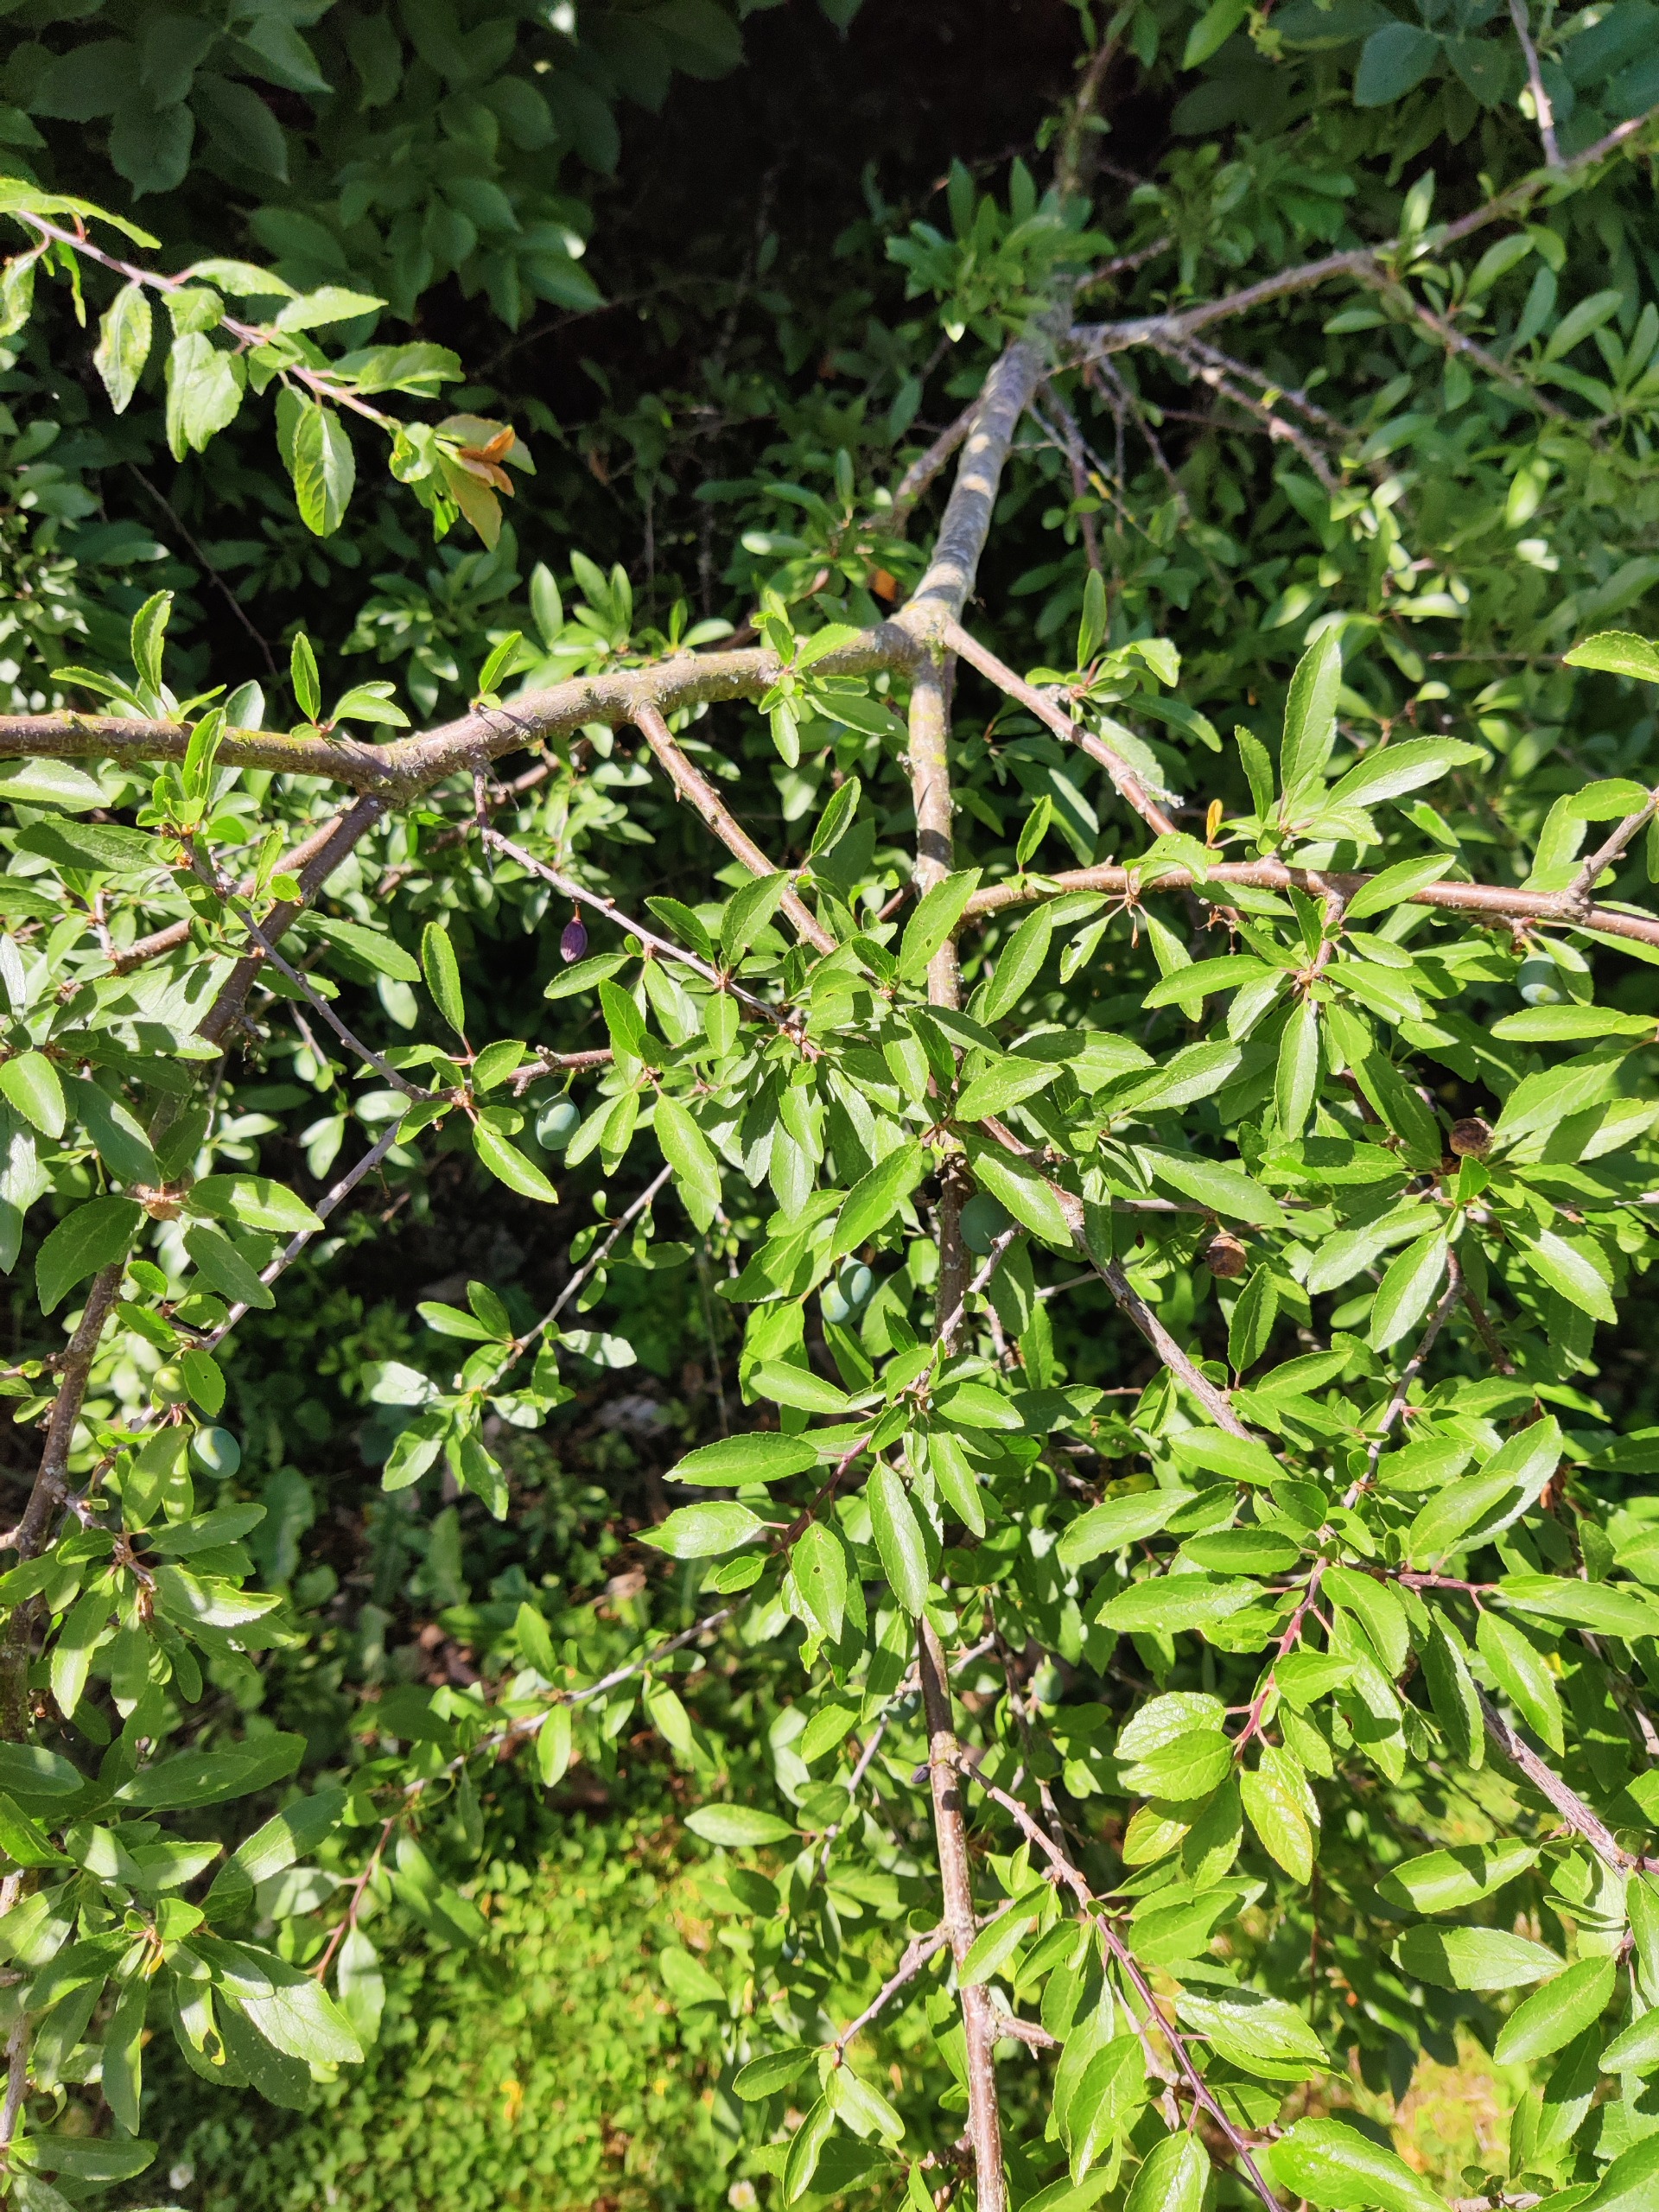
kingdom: Plantae
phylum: Tracheophyta
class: Magnoliopsida
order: Rosales
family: Rosaceae
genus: Prunus
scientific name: Prunus spinosa
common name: Slåen
